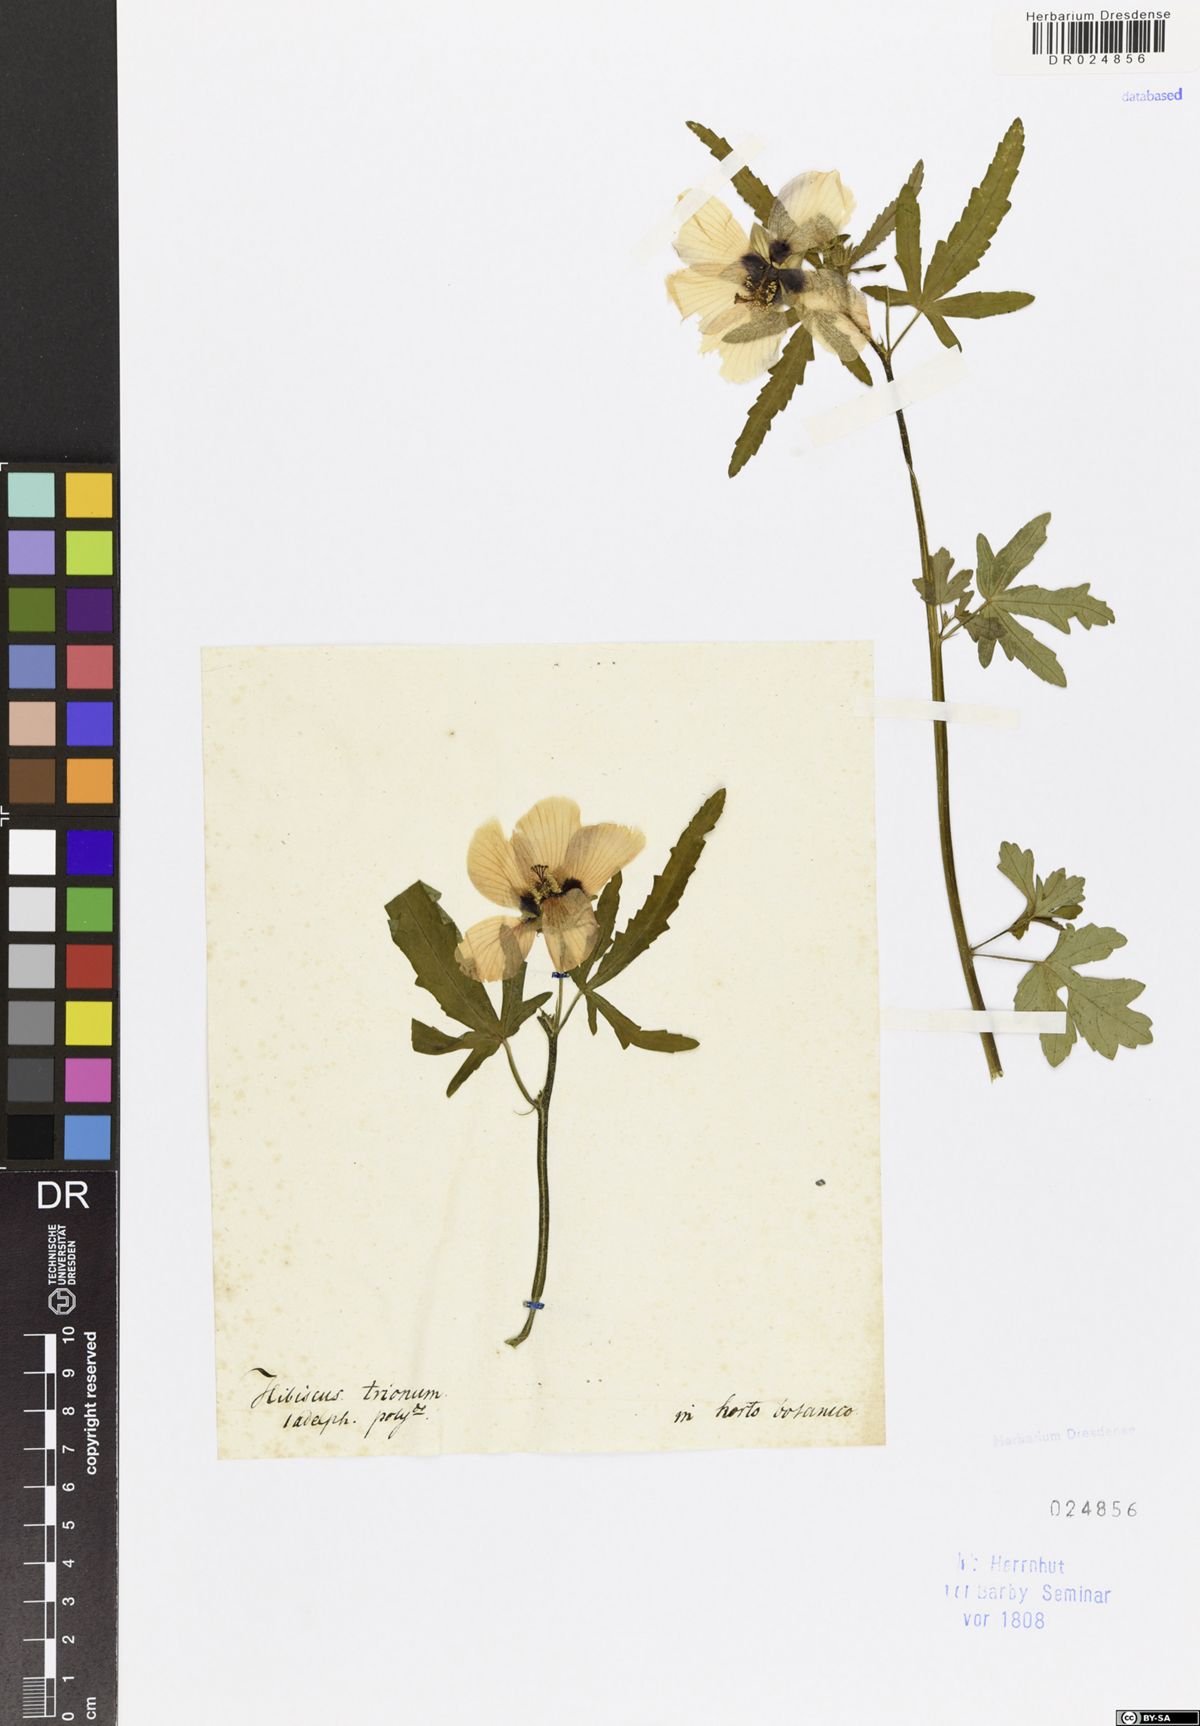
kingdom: Plantae
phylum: Tracheophyta
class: Magnoliopsida
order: Malvales
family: Malvaceae
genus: Hibiscus
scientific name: Hibiscus trionum
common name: Bladder ketmia
